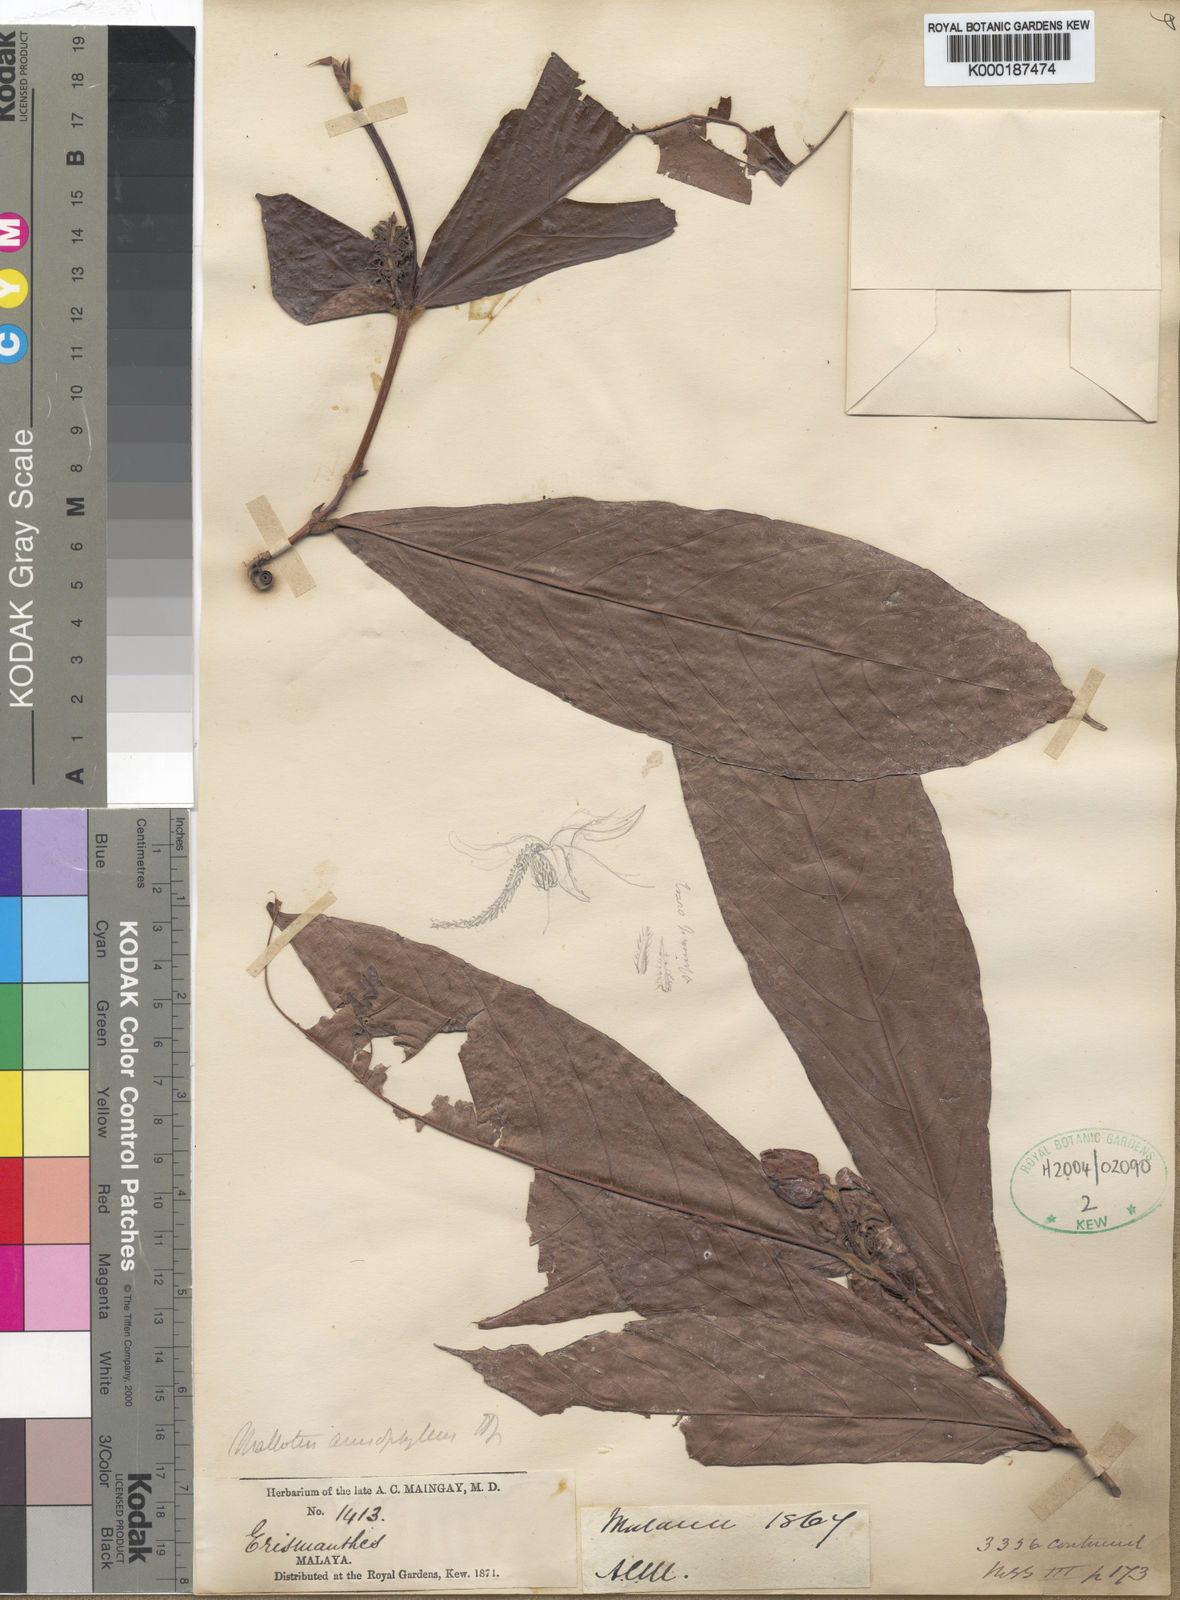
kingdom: Plantae
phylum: Tracheophyta
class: Magnoliopsida
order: Malpighiales
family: Euphorbiaceae
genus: Mallotus
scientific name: Mallotus miquelianus
